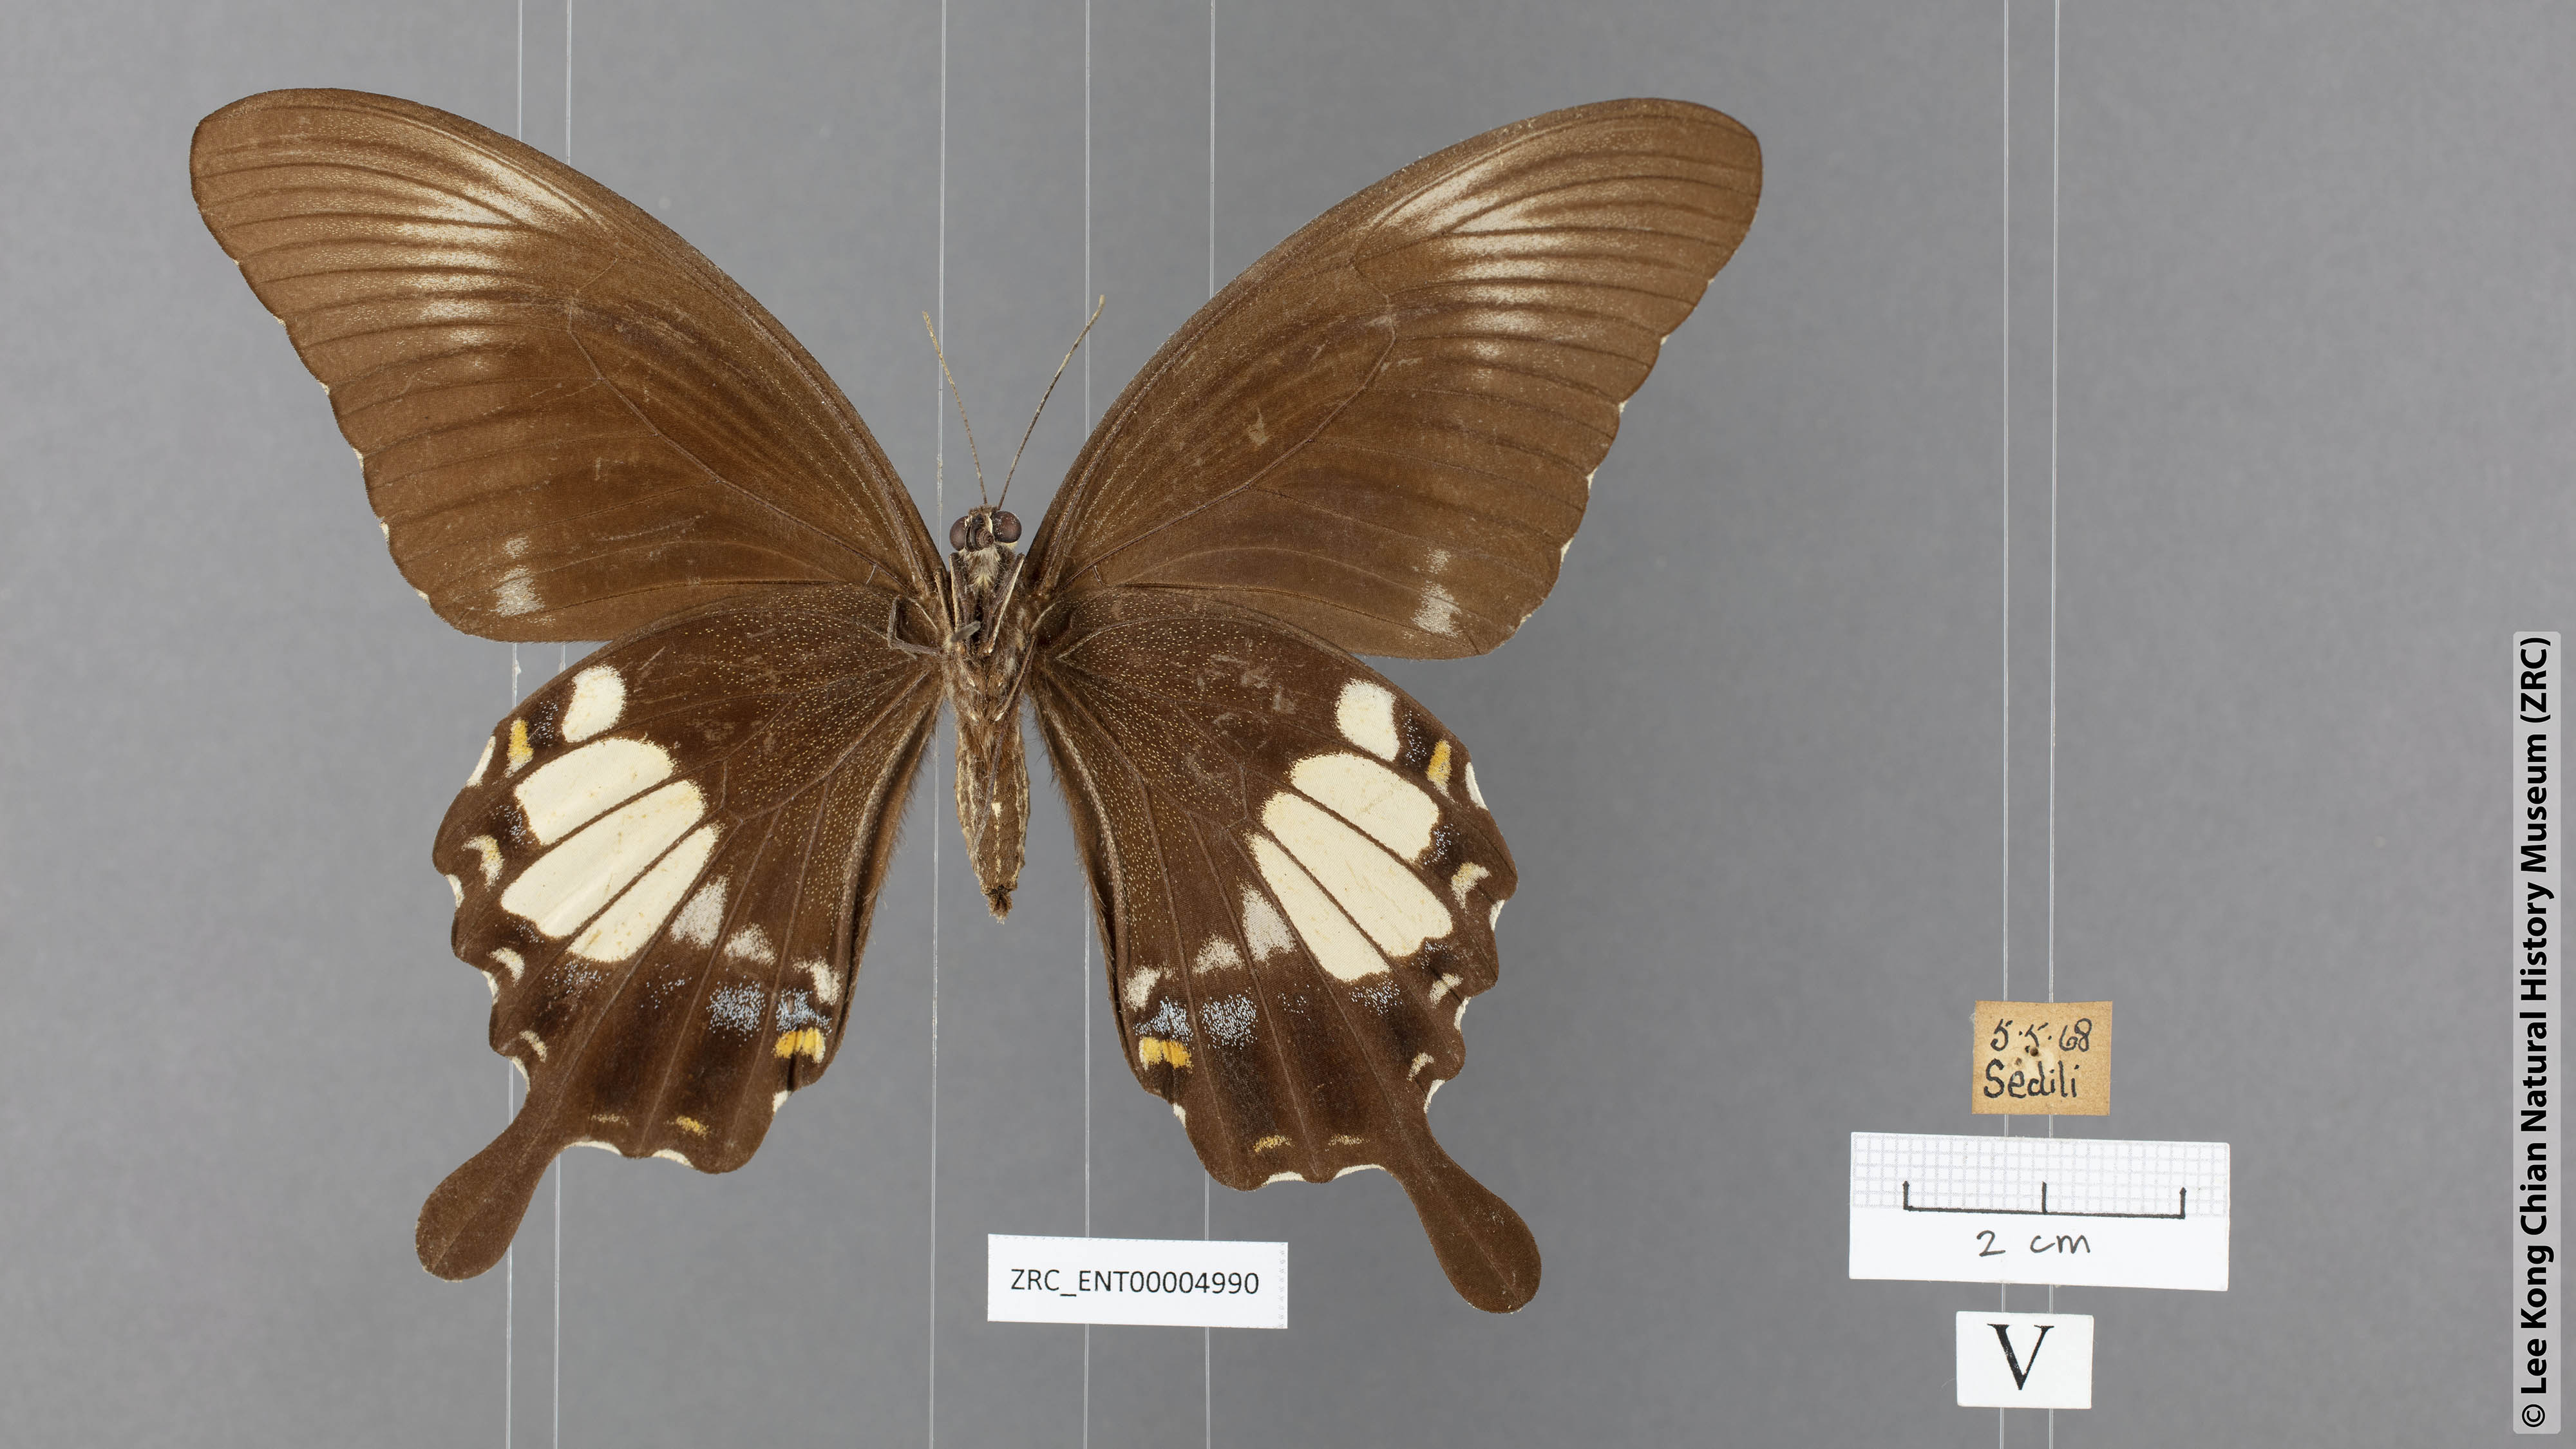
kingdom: Animalia
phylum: Arthropoda
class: Insecta
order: Lepidoptera
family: Papilionidae
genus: Papilio
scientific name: Papilio prexaspes
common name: Blue helen swallowtail
